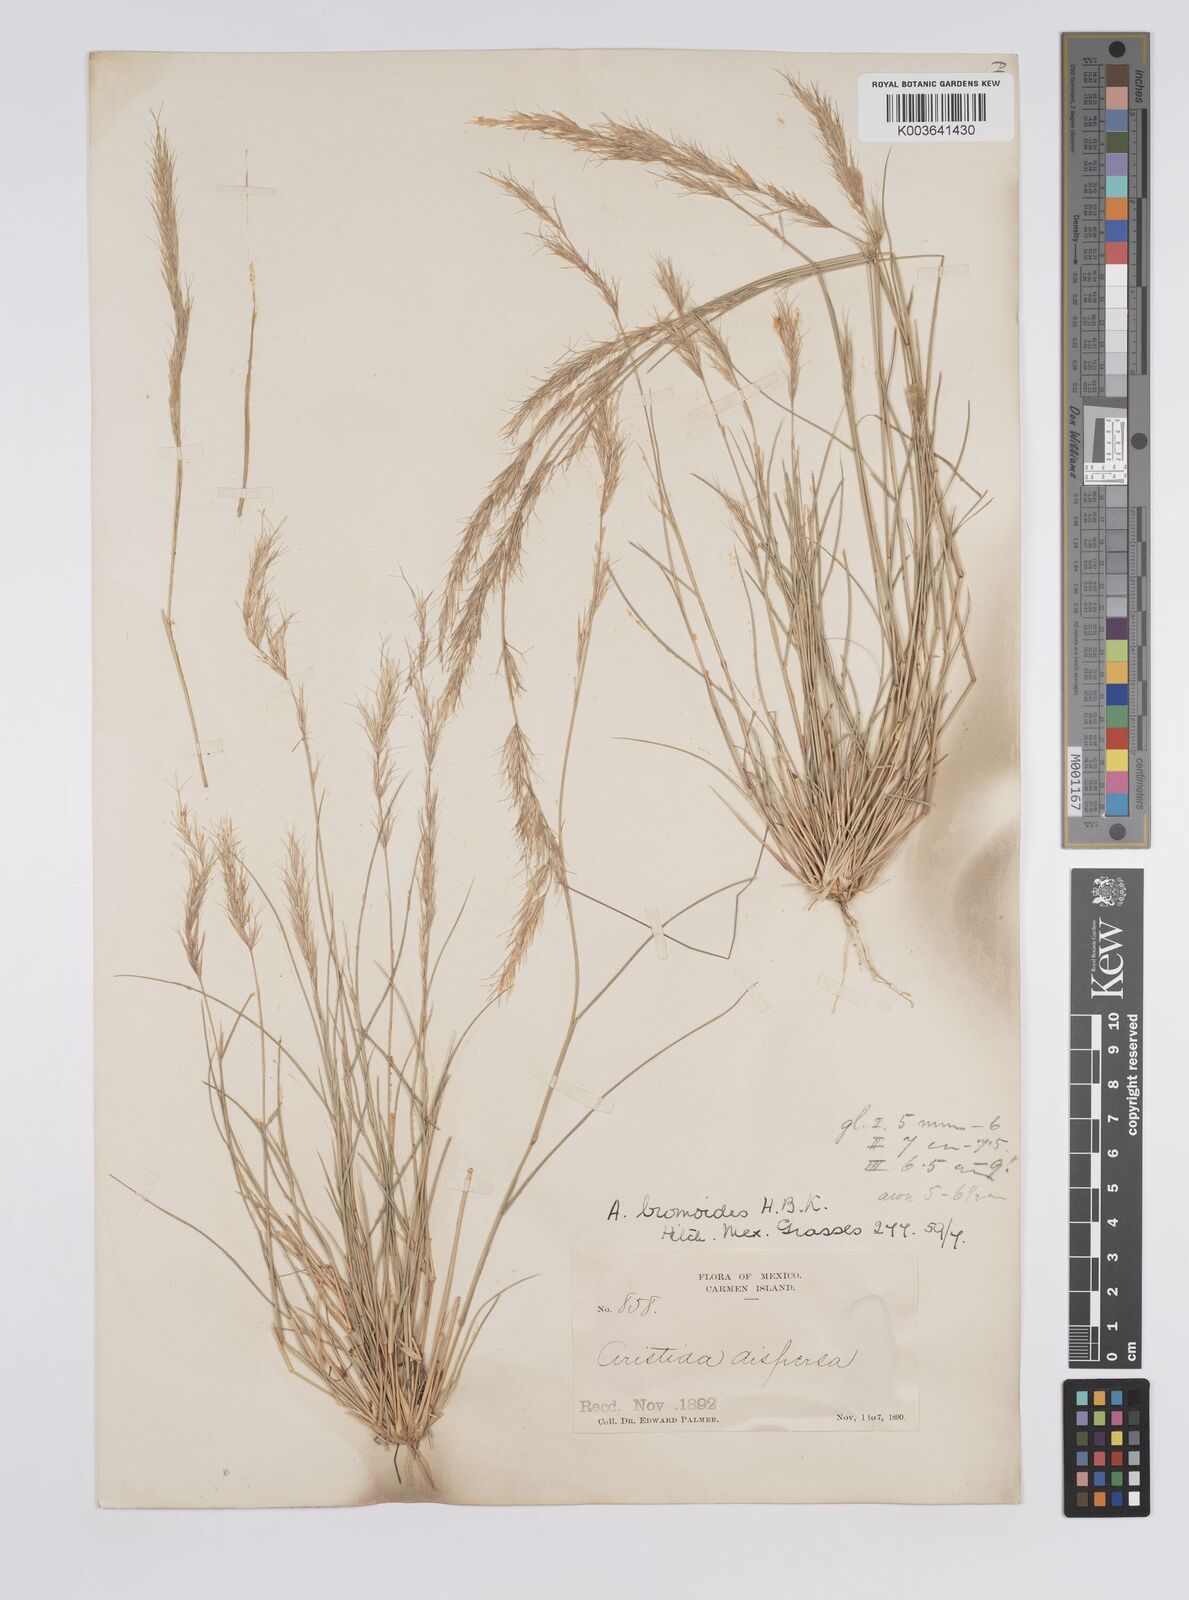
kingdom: Plantae
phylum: Tracheophyta
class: Liliopsida
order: Poales
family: Poaceae
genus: Aristida
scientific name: Aristida adscensionis
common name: Sixweeks threeawn
